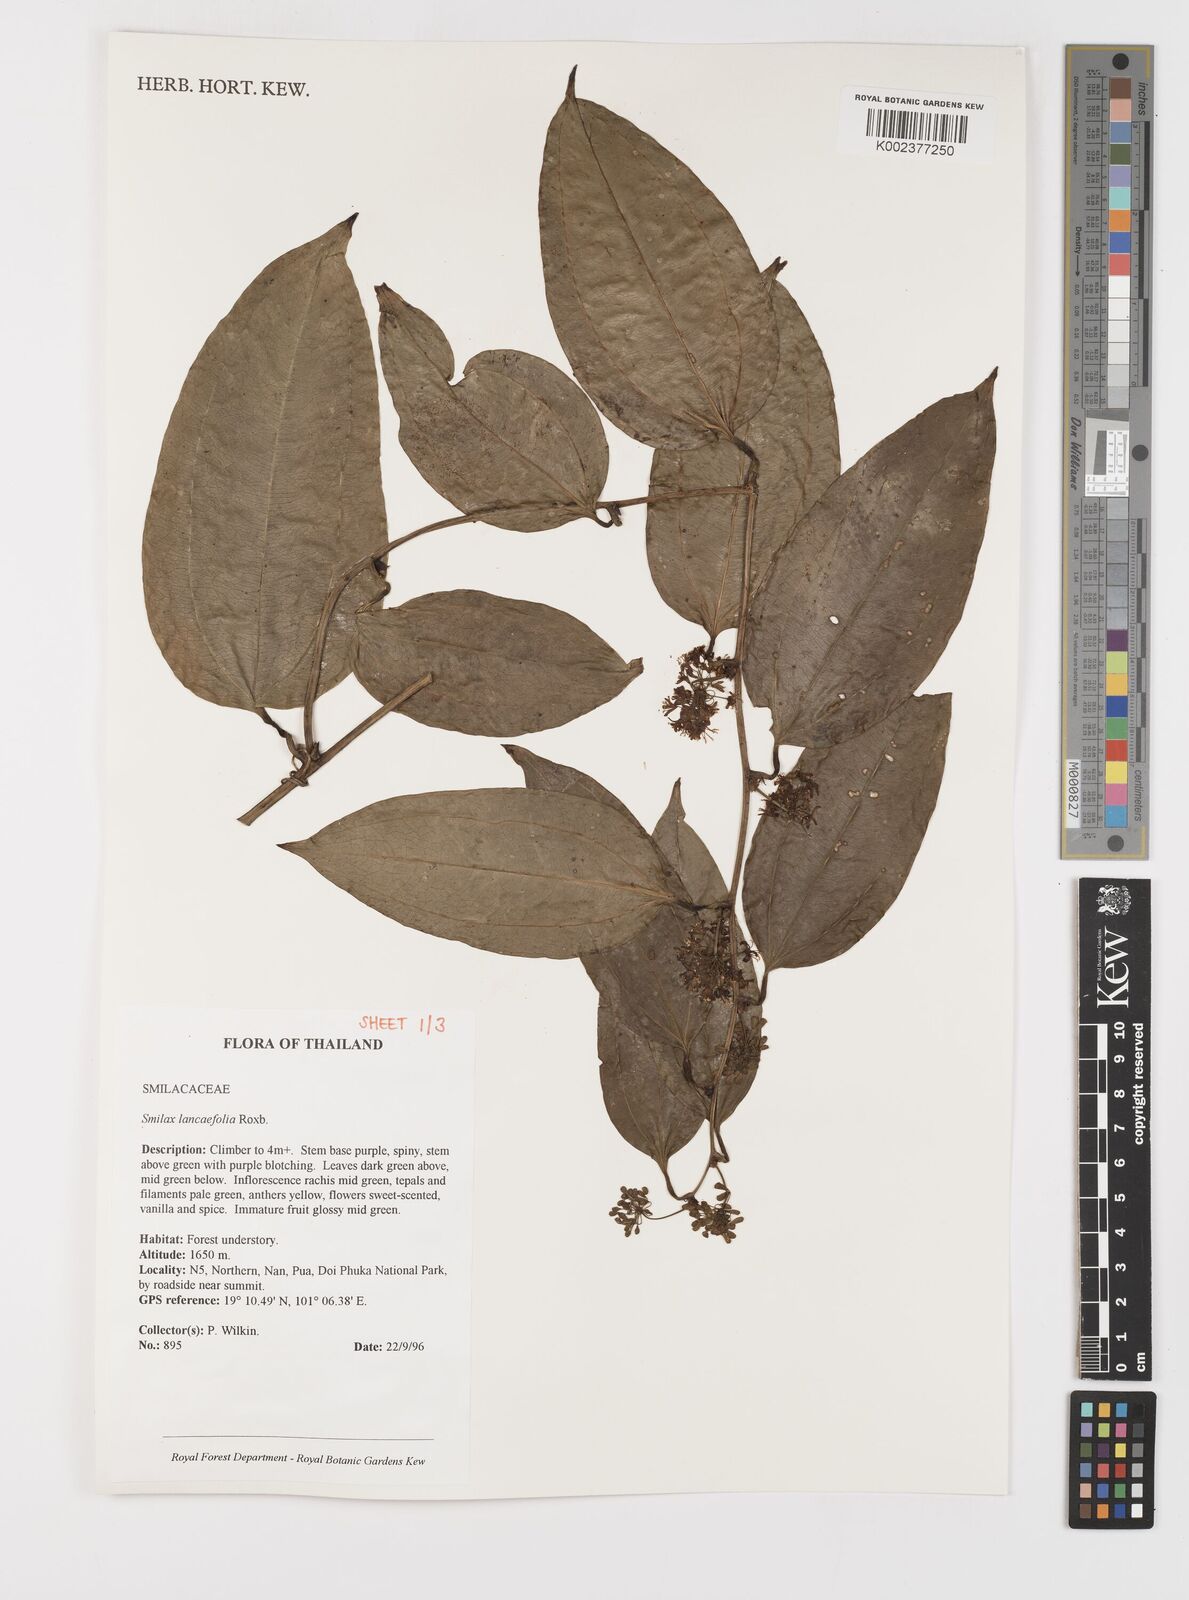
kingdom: Plantae
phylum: Tracheophyta
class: Liliopsida
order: Liliales
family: Smilacaceae
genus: Smilax
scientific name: Smilax lanceifolia
